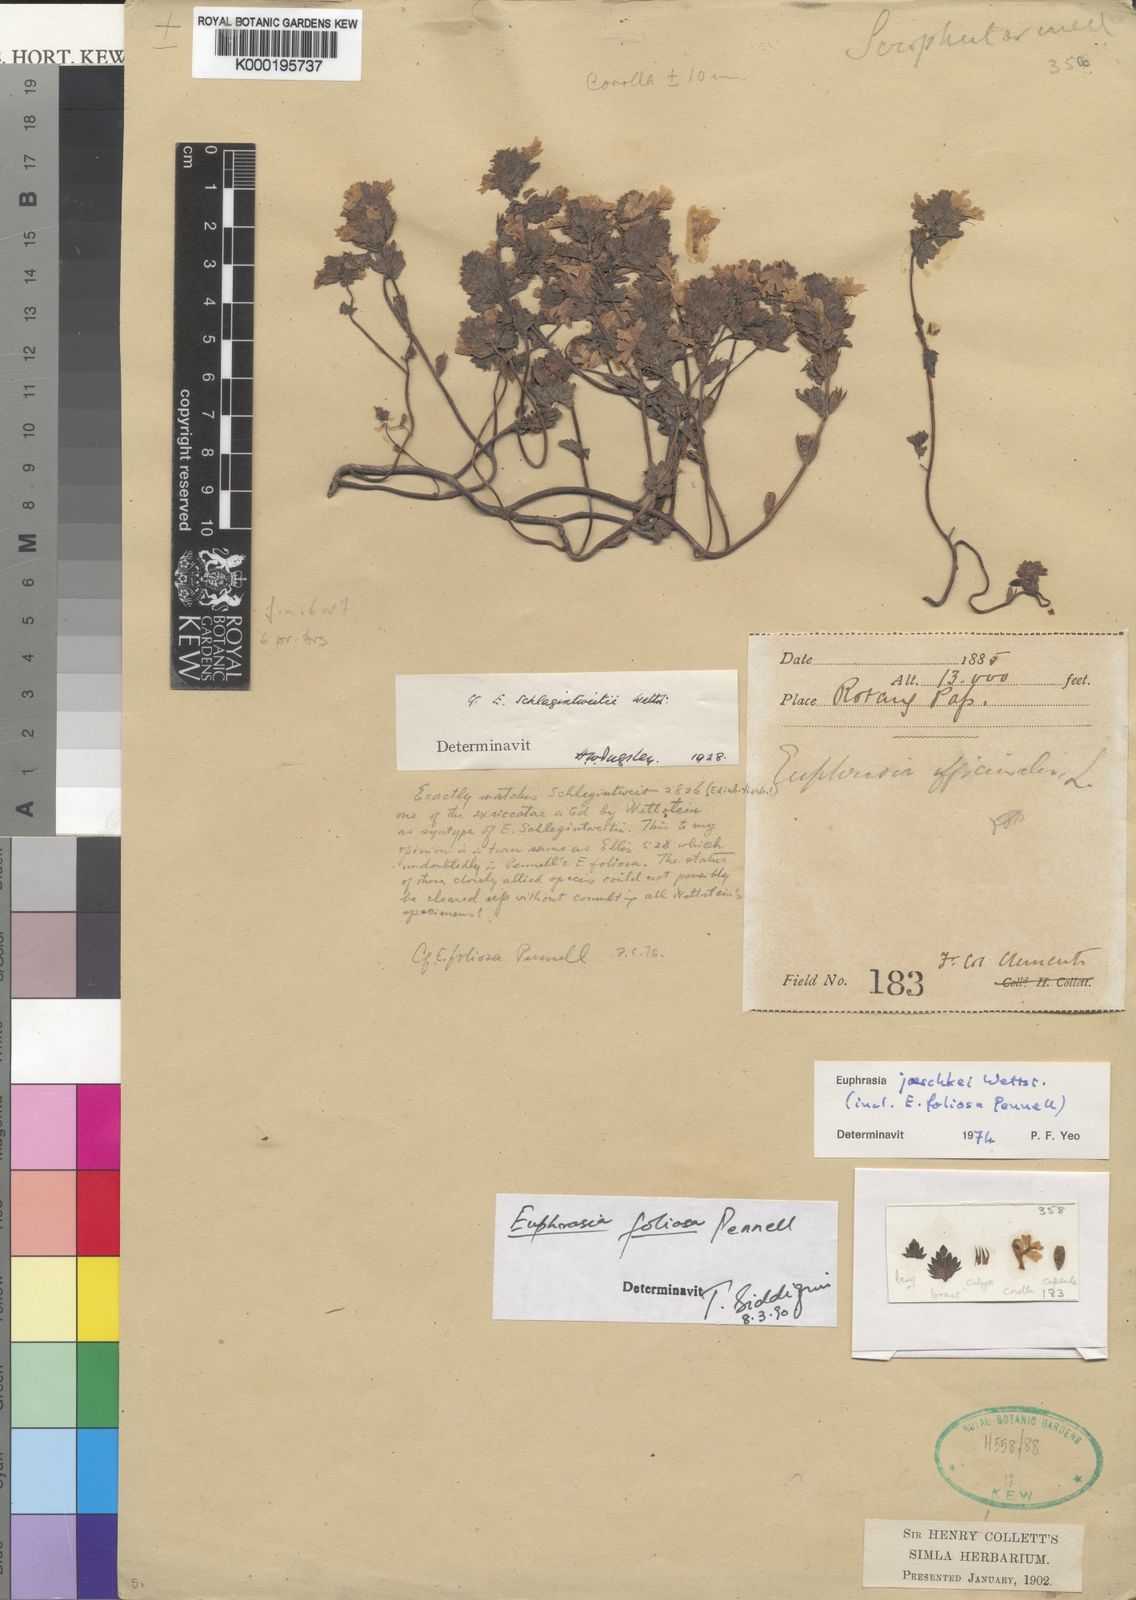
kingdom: Plantae
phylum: Tracheophyta
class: Magnoliopsida
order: Lamiales
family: Orobanchaceae
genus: Euphrasia
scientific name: Euphrasia foliosa
